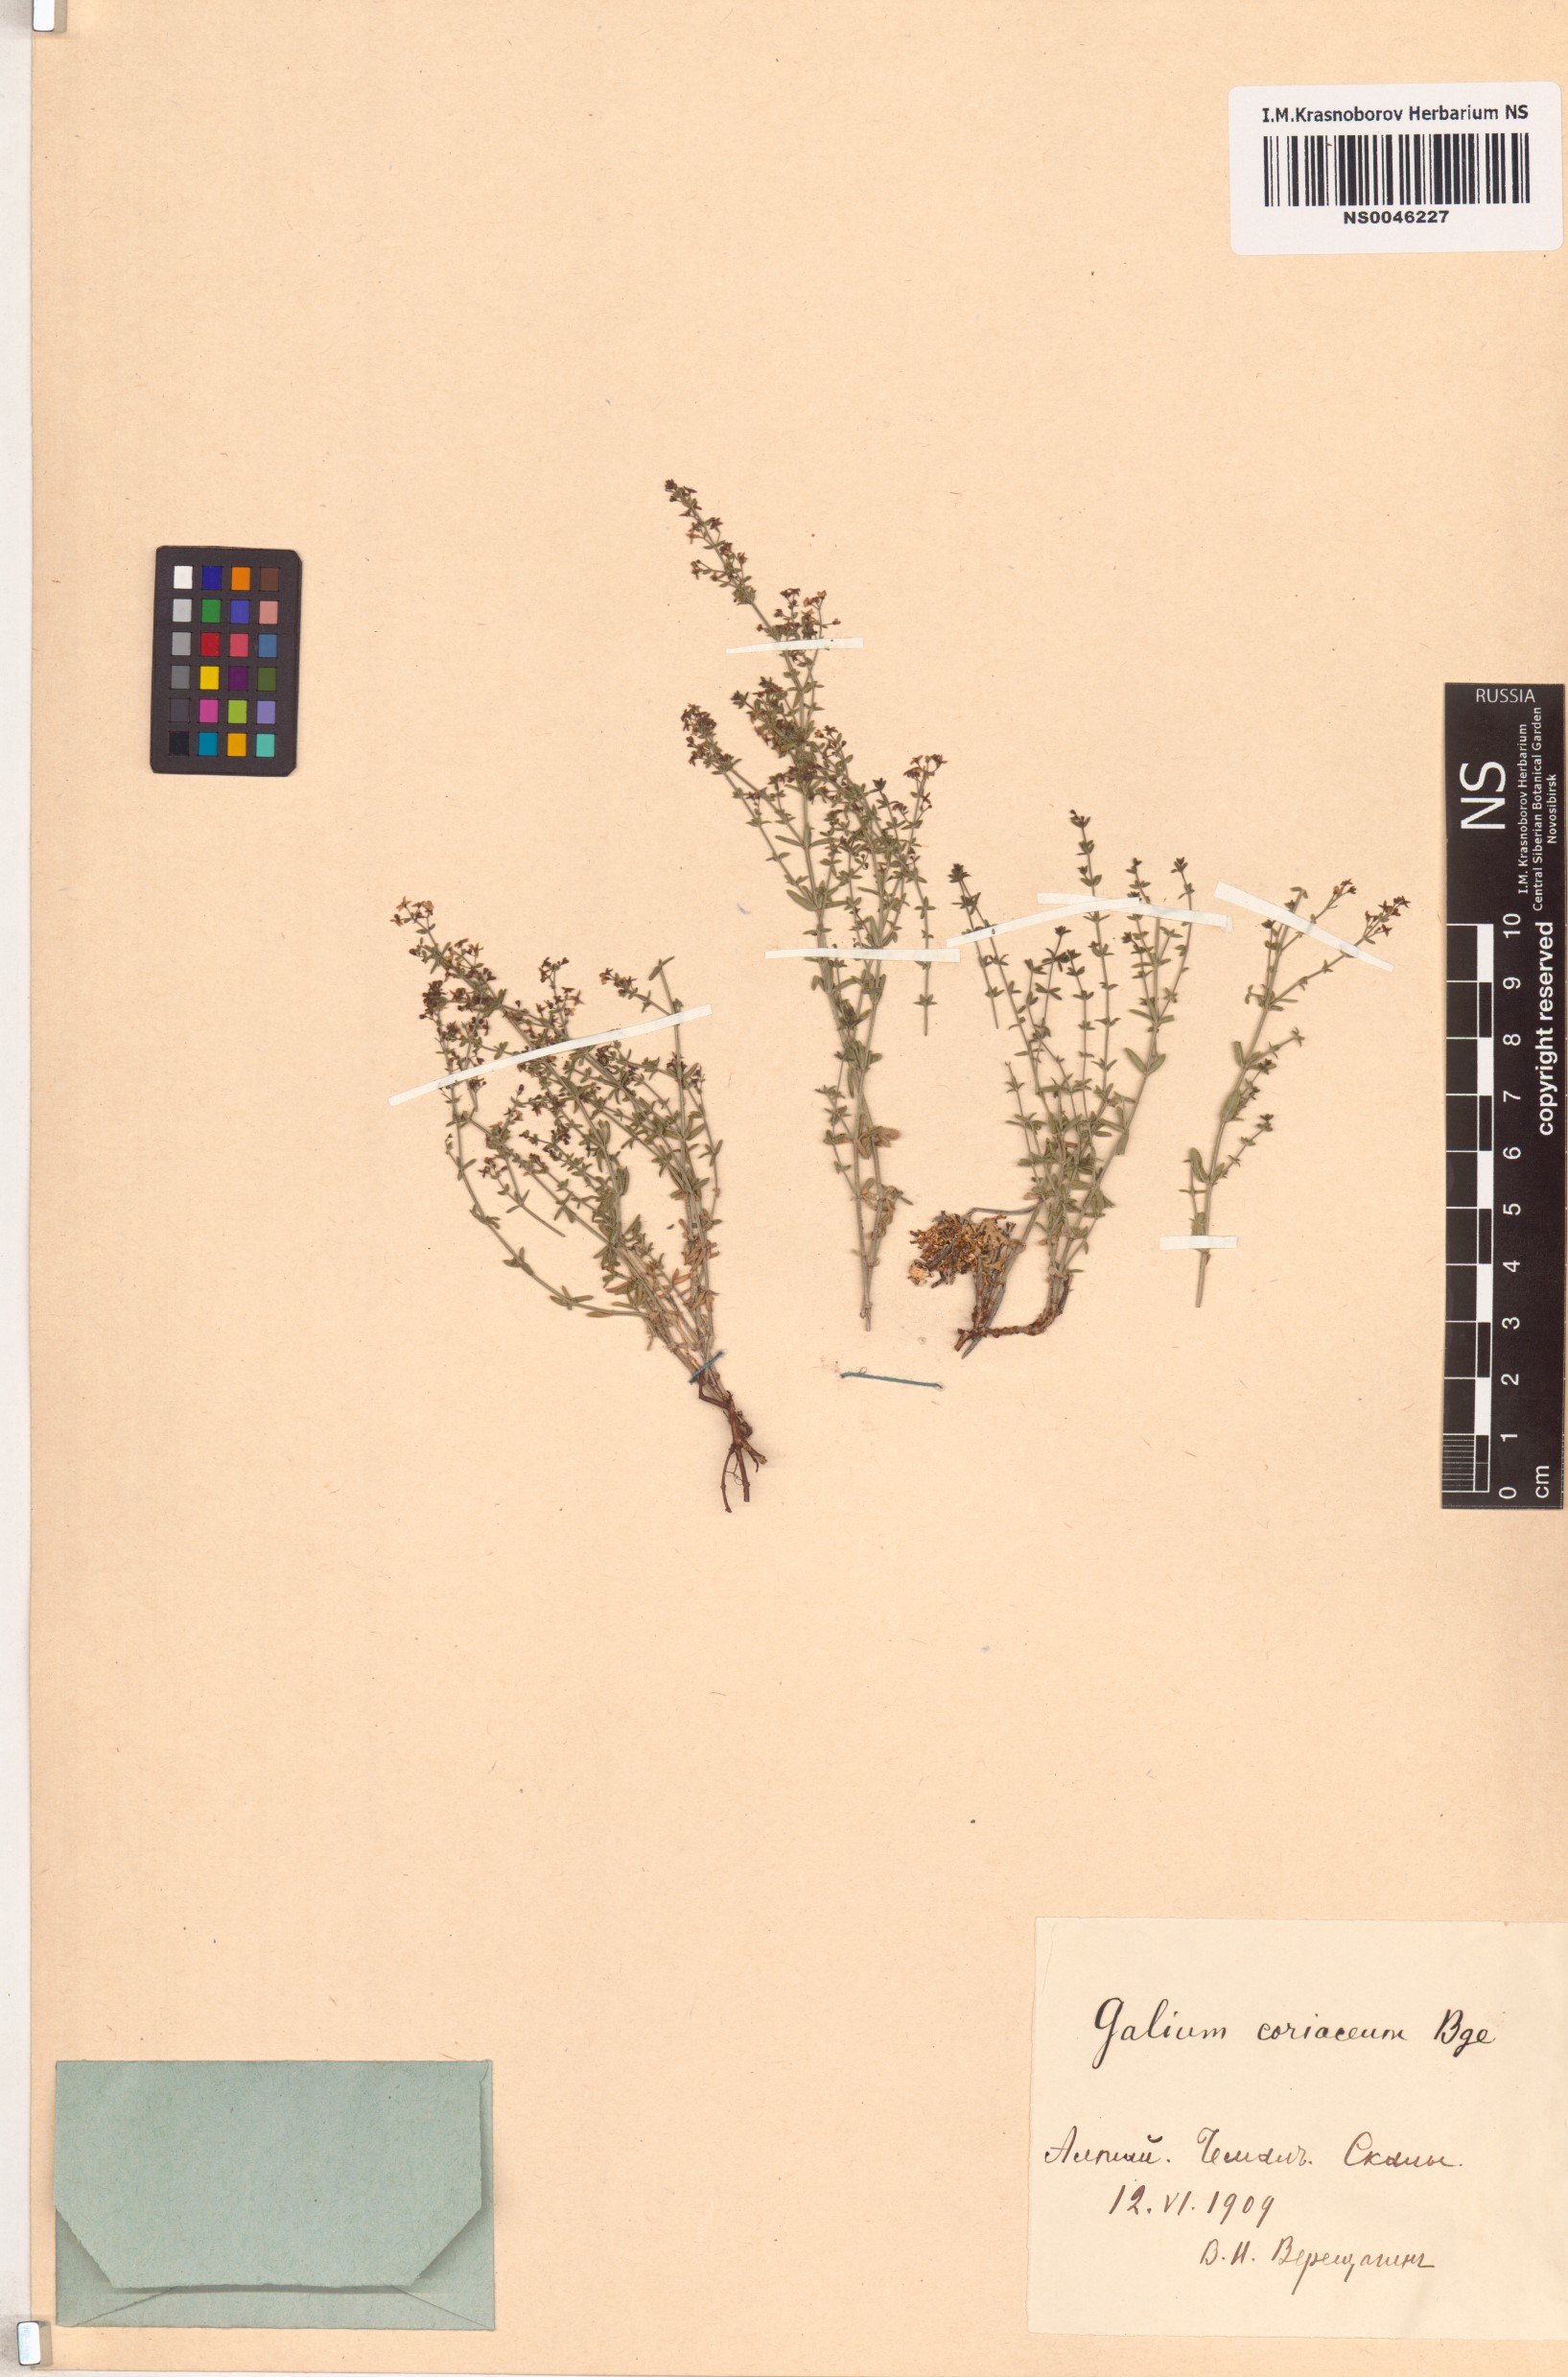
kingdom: Plantae
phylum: Tracheophyta
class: Magnoliopsida
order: Gentianales
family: Rubiaceae
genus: Galium
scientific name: Galium coriaceum
